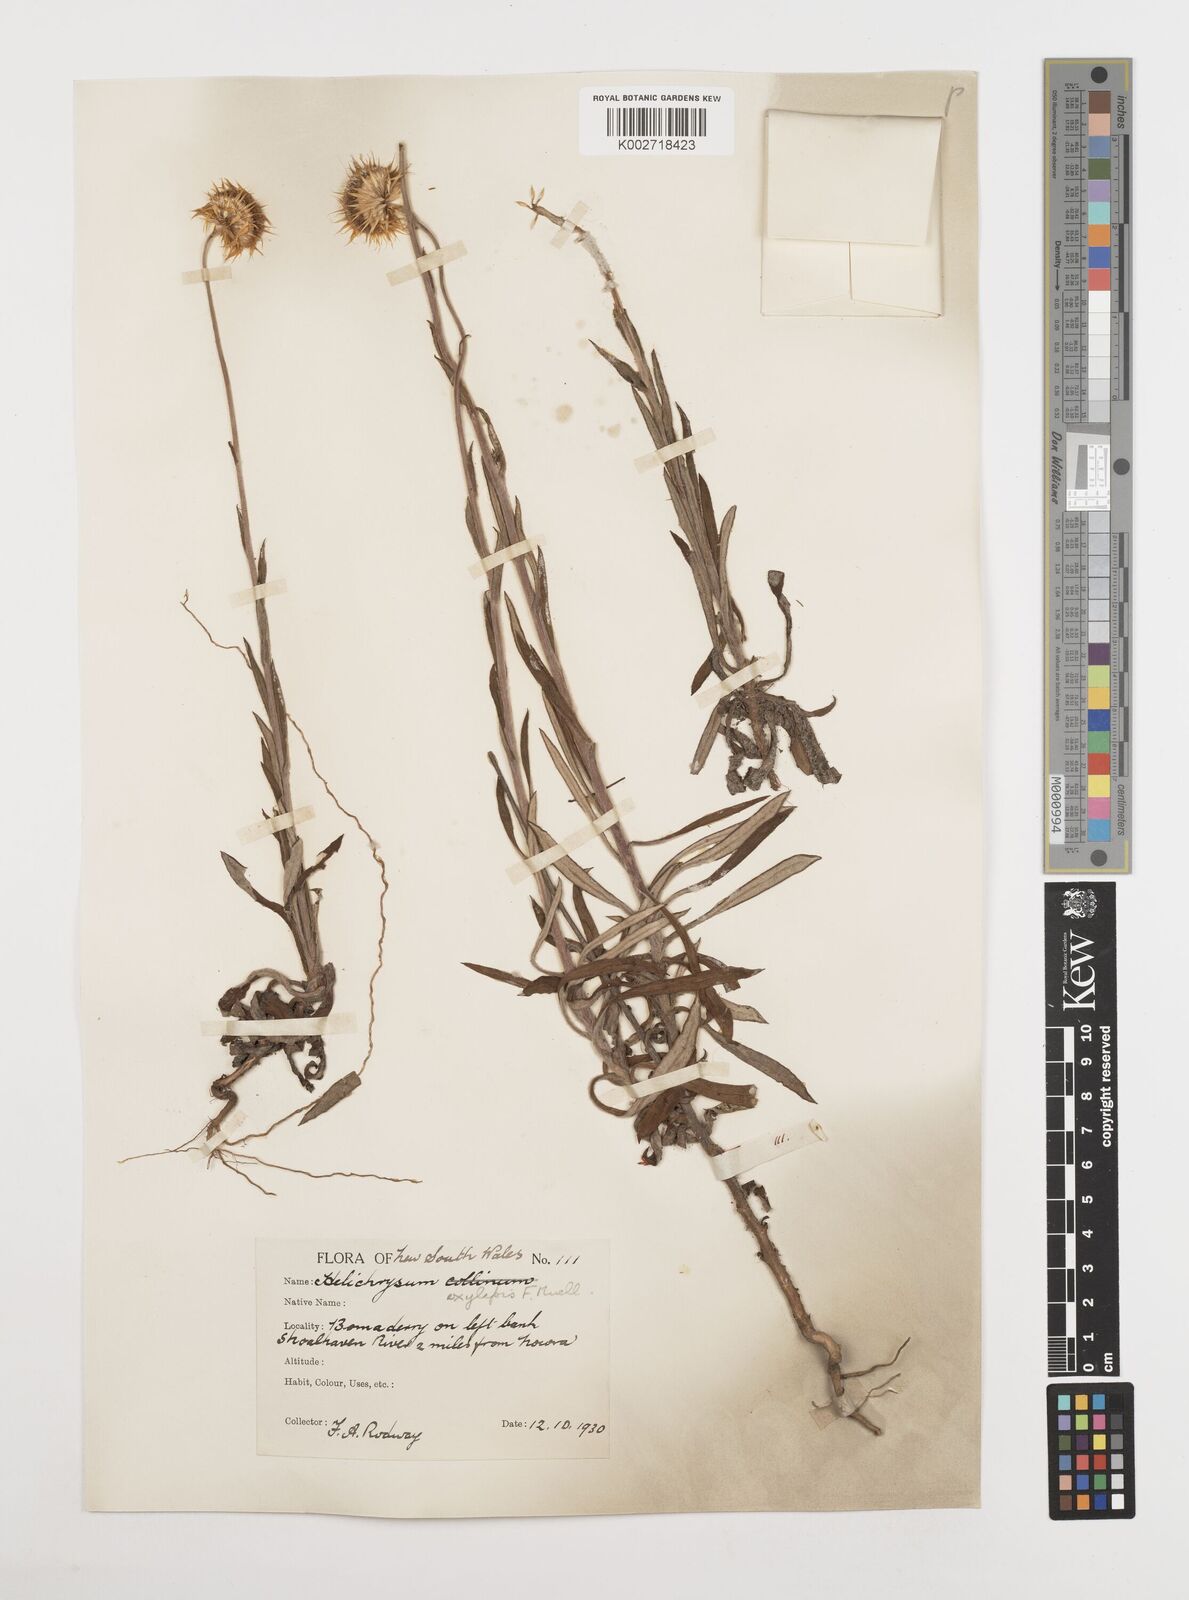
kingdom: Plantae
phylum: Tracheophyta
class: Magnoliopsida
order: Asterales
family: Asteraceae
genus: Coronidium
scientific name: Coronidium oxylepis
